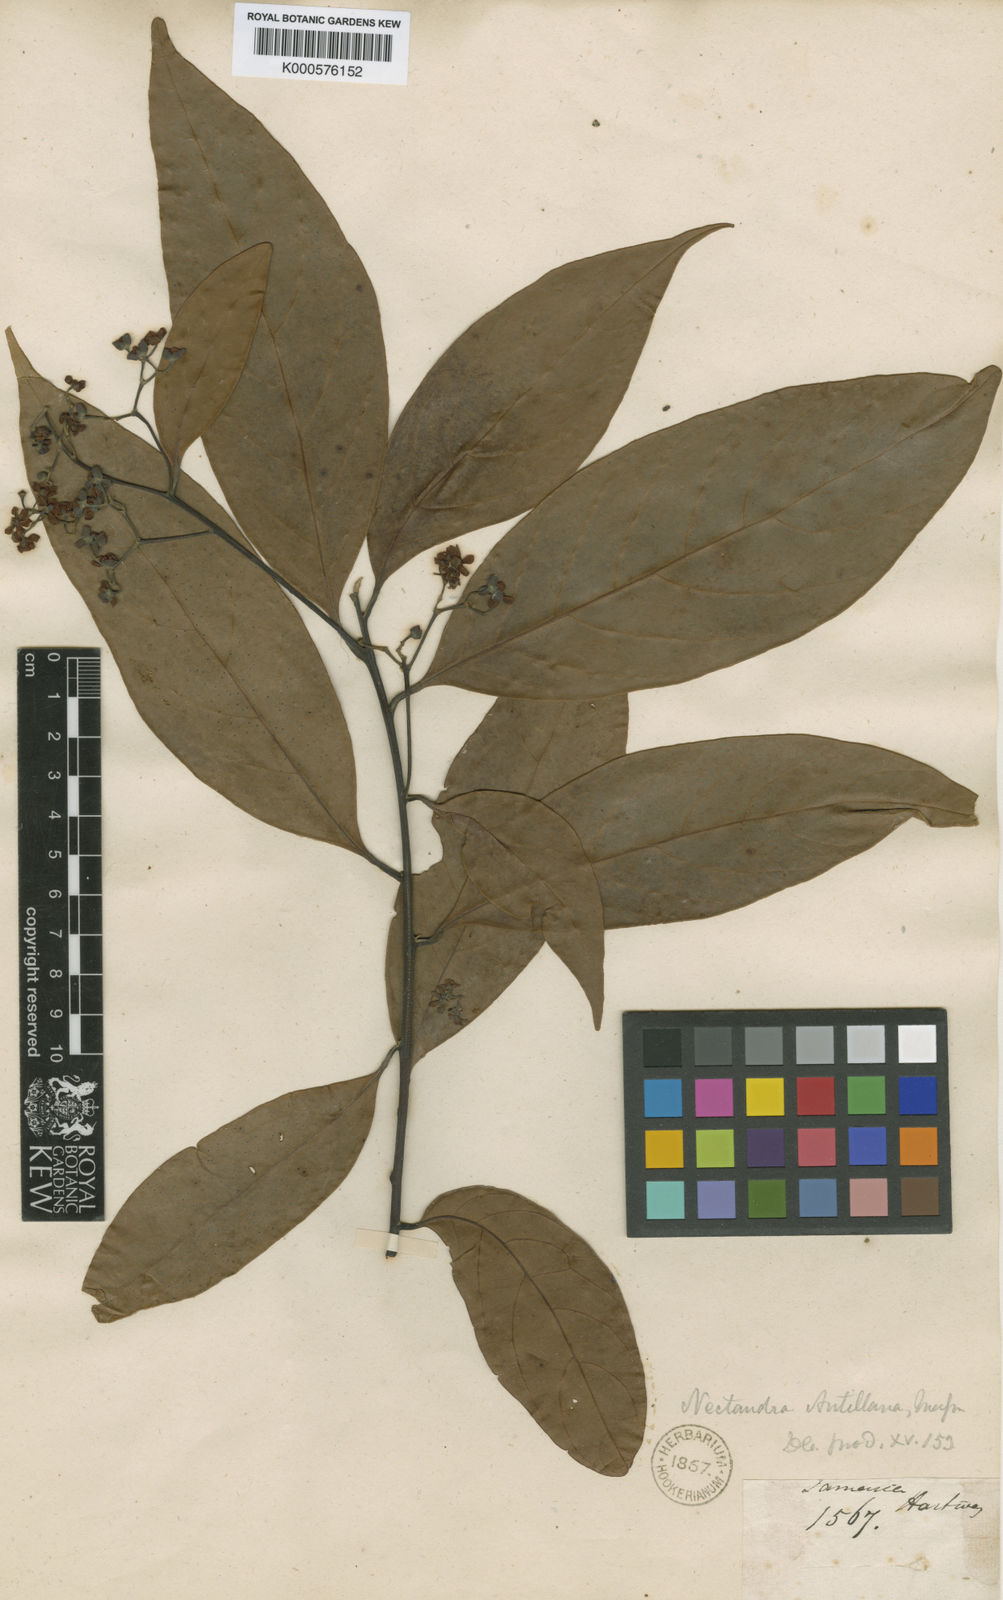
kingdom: Plantae
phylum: Tracheophyta
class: Magnoliopsida
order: Laurales
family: Lauraceae
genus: Nectandra
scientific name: Nectandra globosa
